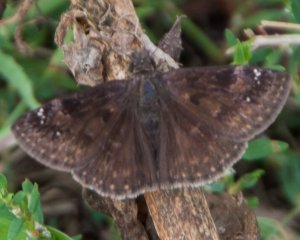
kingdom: Animalia
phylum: Arthropoda
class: Insecta
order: Lepidoptera
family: Hesperiidae
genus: Gesta
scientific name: Gesta
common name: Wild Indigo Duskywing
